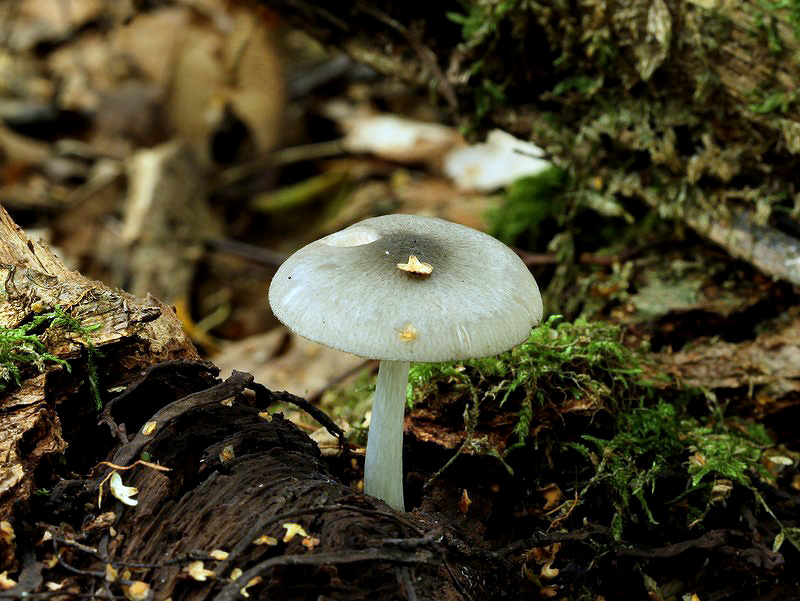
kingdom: Fungi
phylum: Basidiomycota
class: Agaricomycetes
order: Agaricales
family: Pluteaceae
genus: Pluteus
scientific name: Pluteus salicinus
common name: stiv skærmhat
